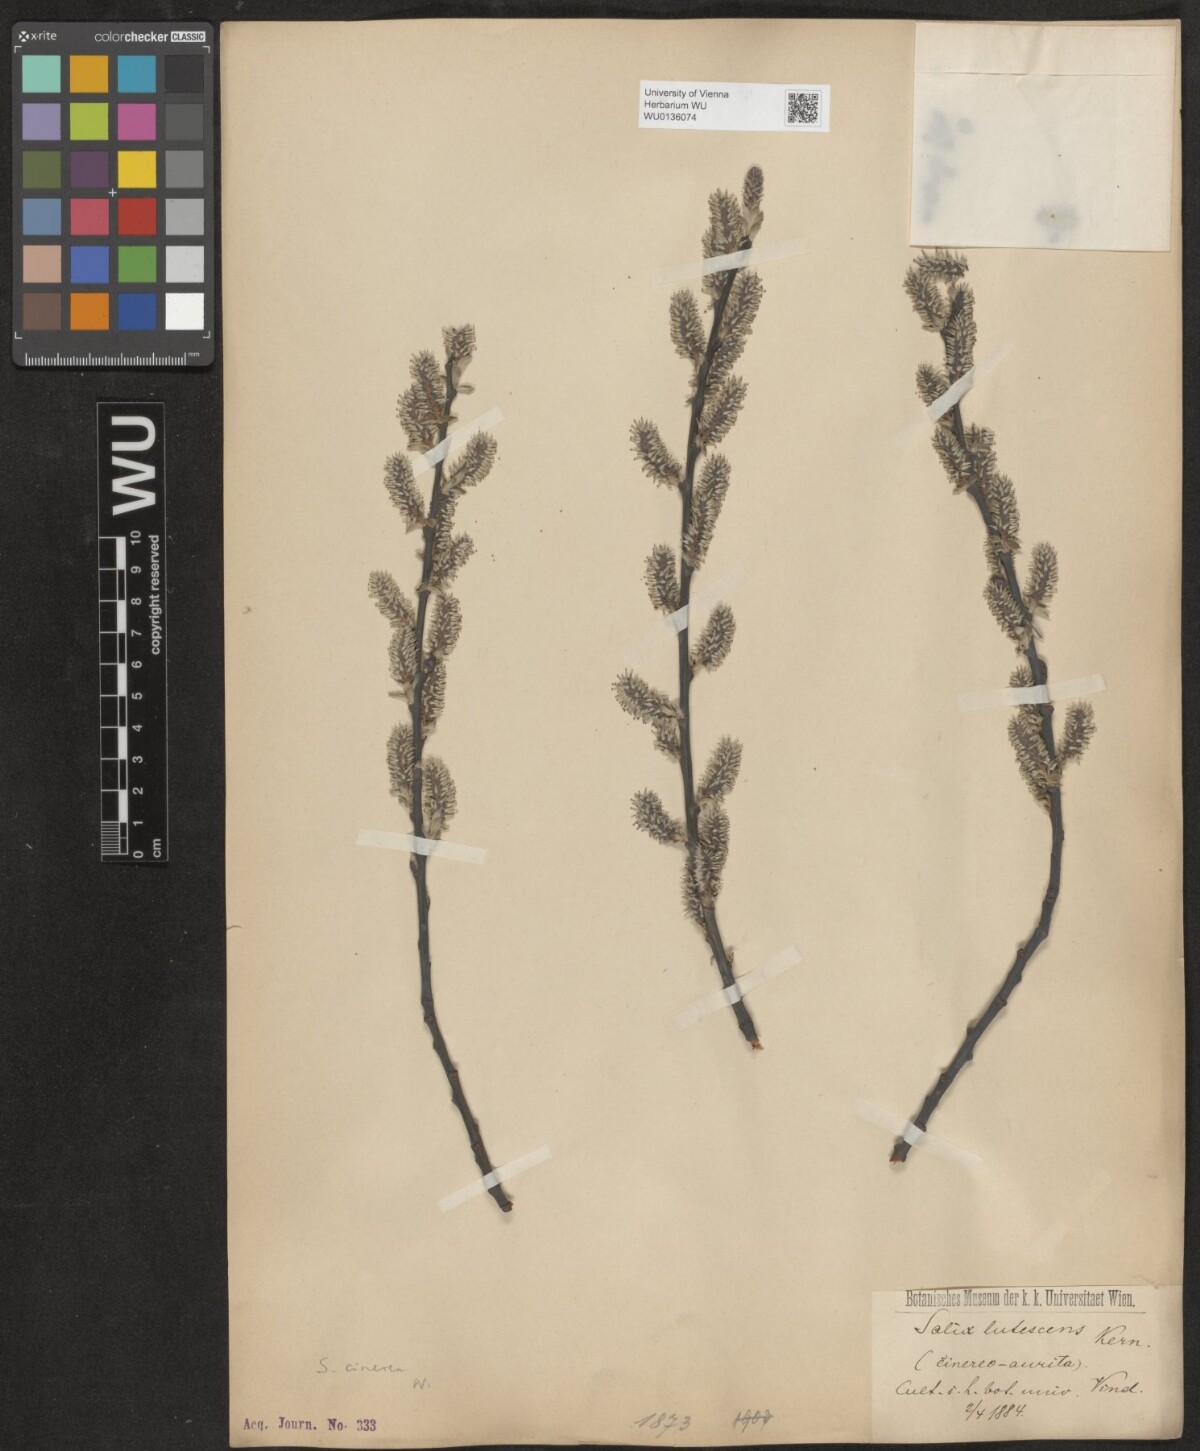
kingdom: Plantae
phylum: Tracheophyta
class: Magnoliopsida
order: Malpighiales
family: Salicaceae
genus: Salix
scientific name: Salix cinerea
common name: Common sallow
